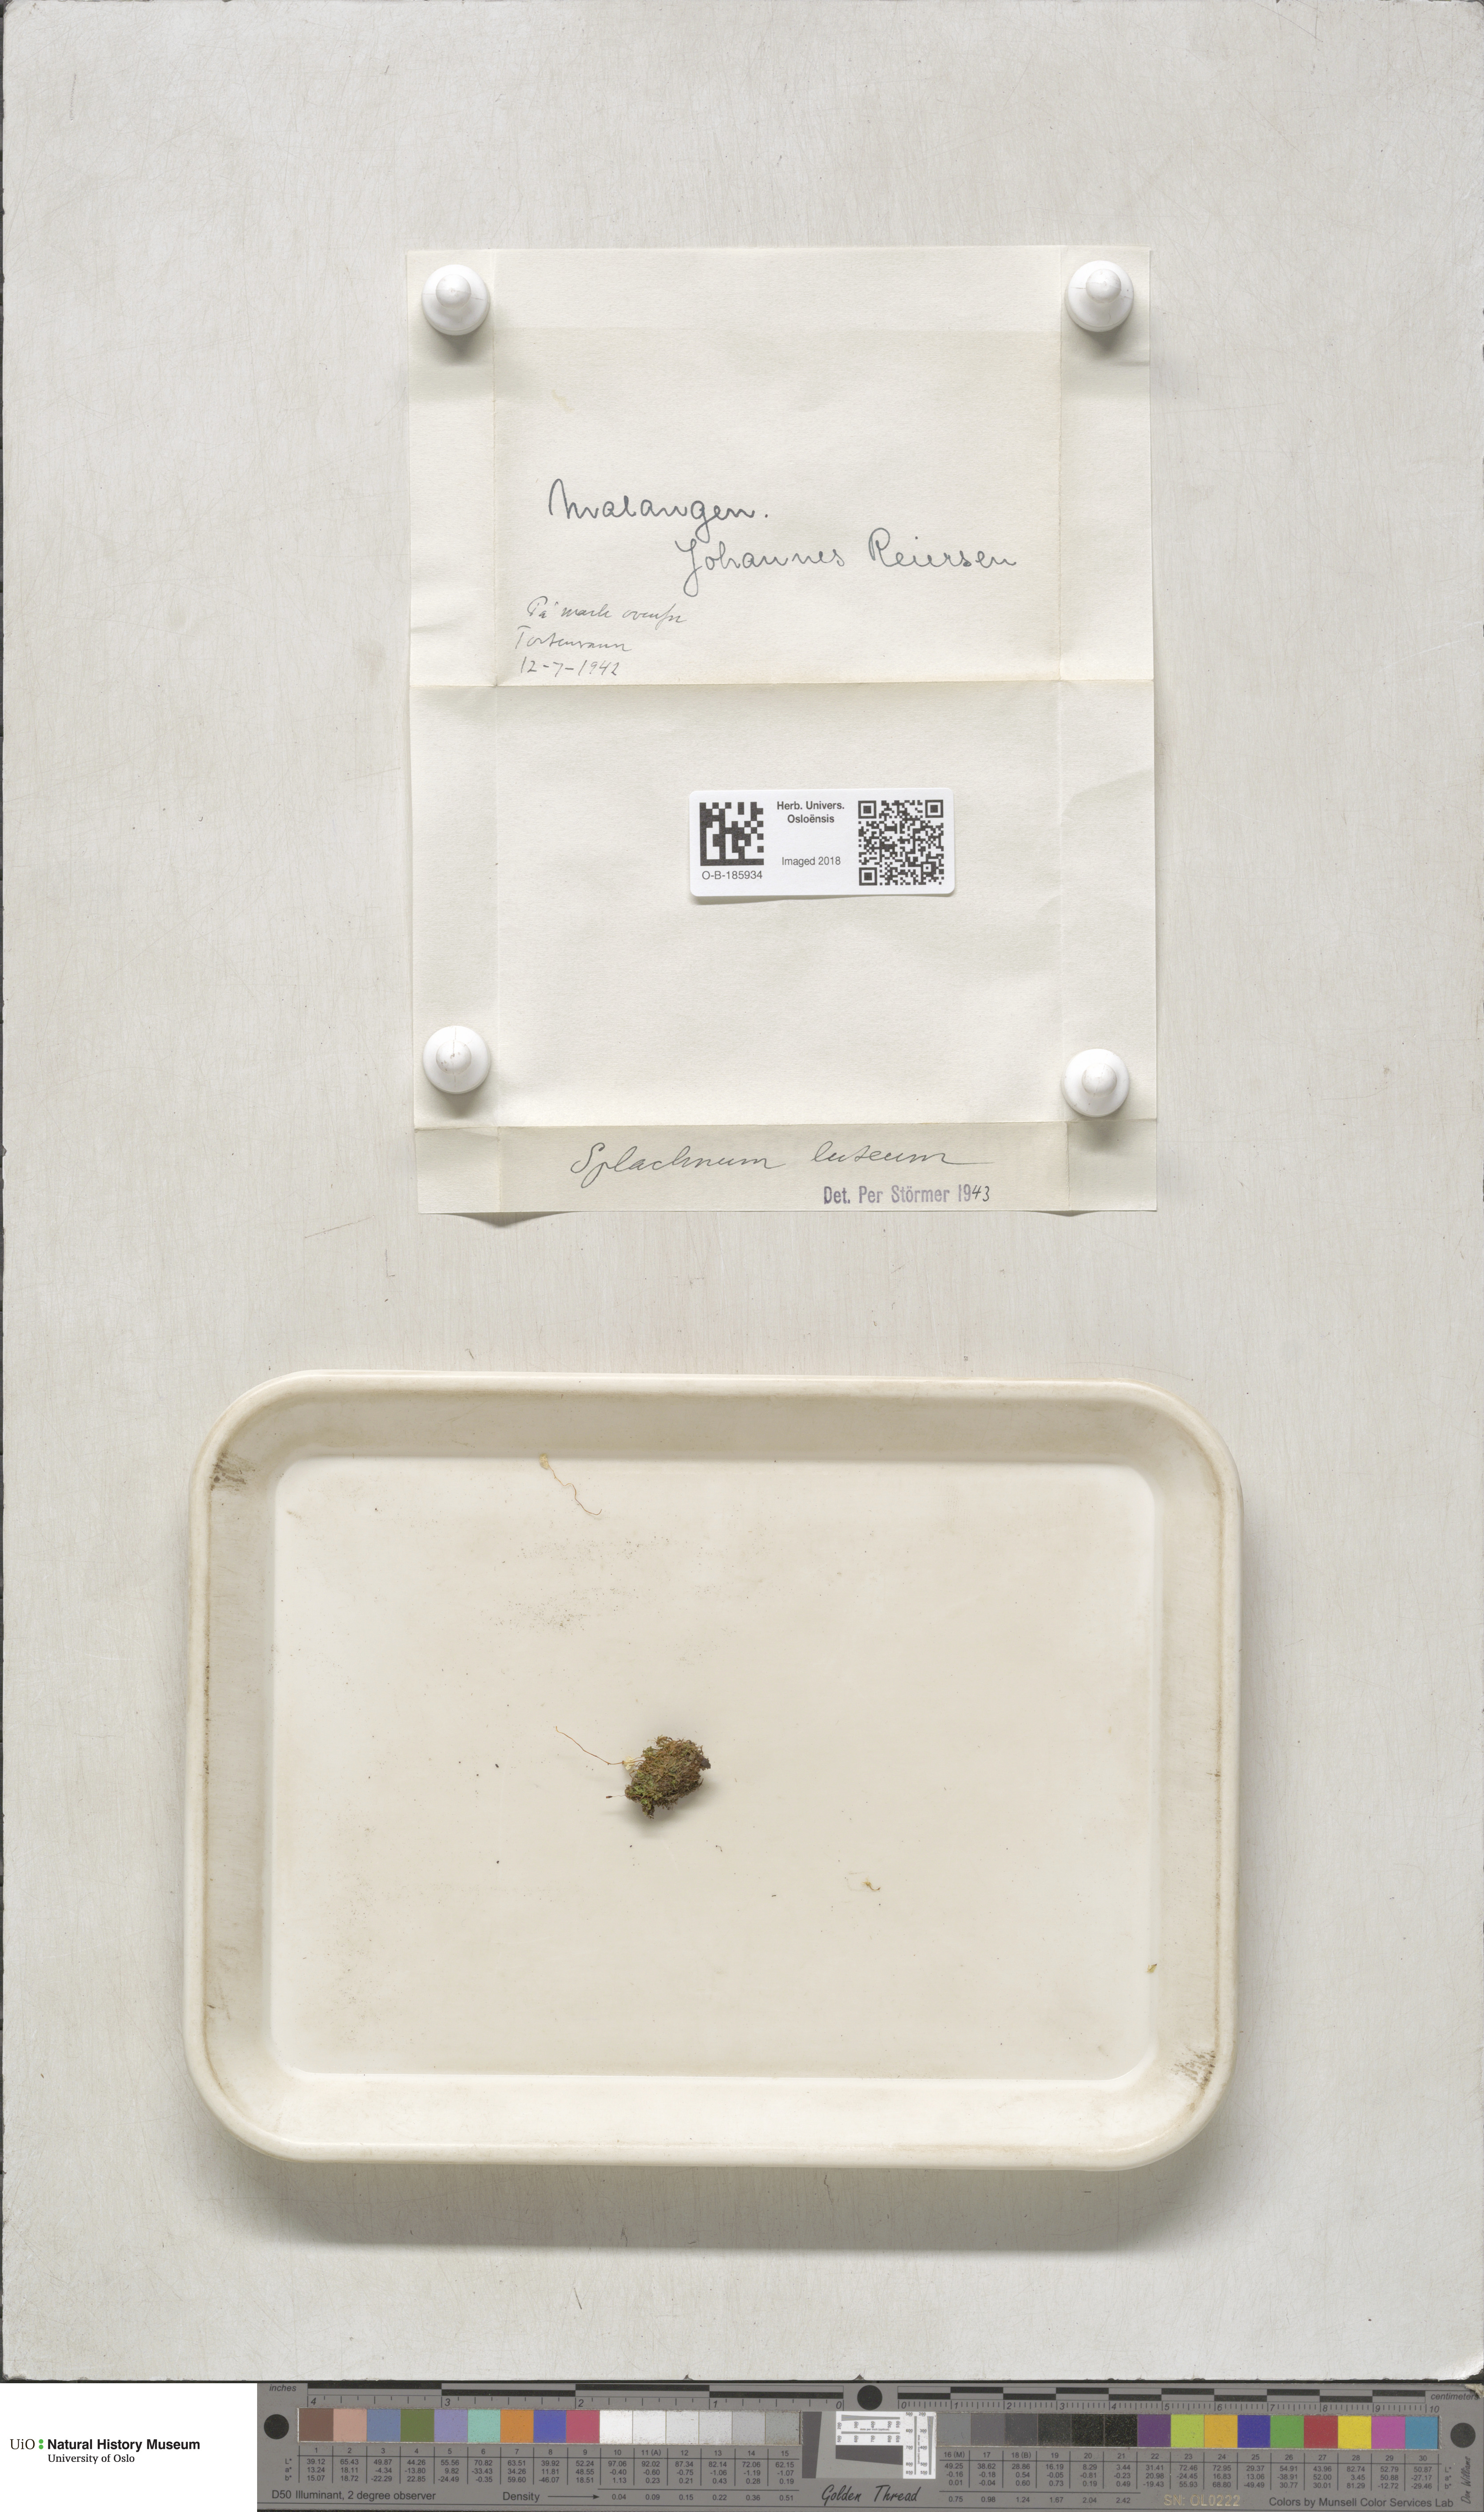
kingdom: Plantae
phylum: Bryophyta
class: Bryopsida
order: Splachnales
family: Splachnaceae
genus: Splachnum
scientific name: Splachnum luteum
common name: Yellow dung moss
